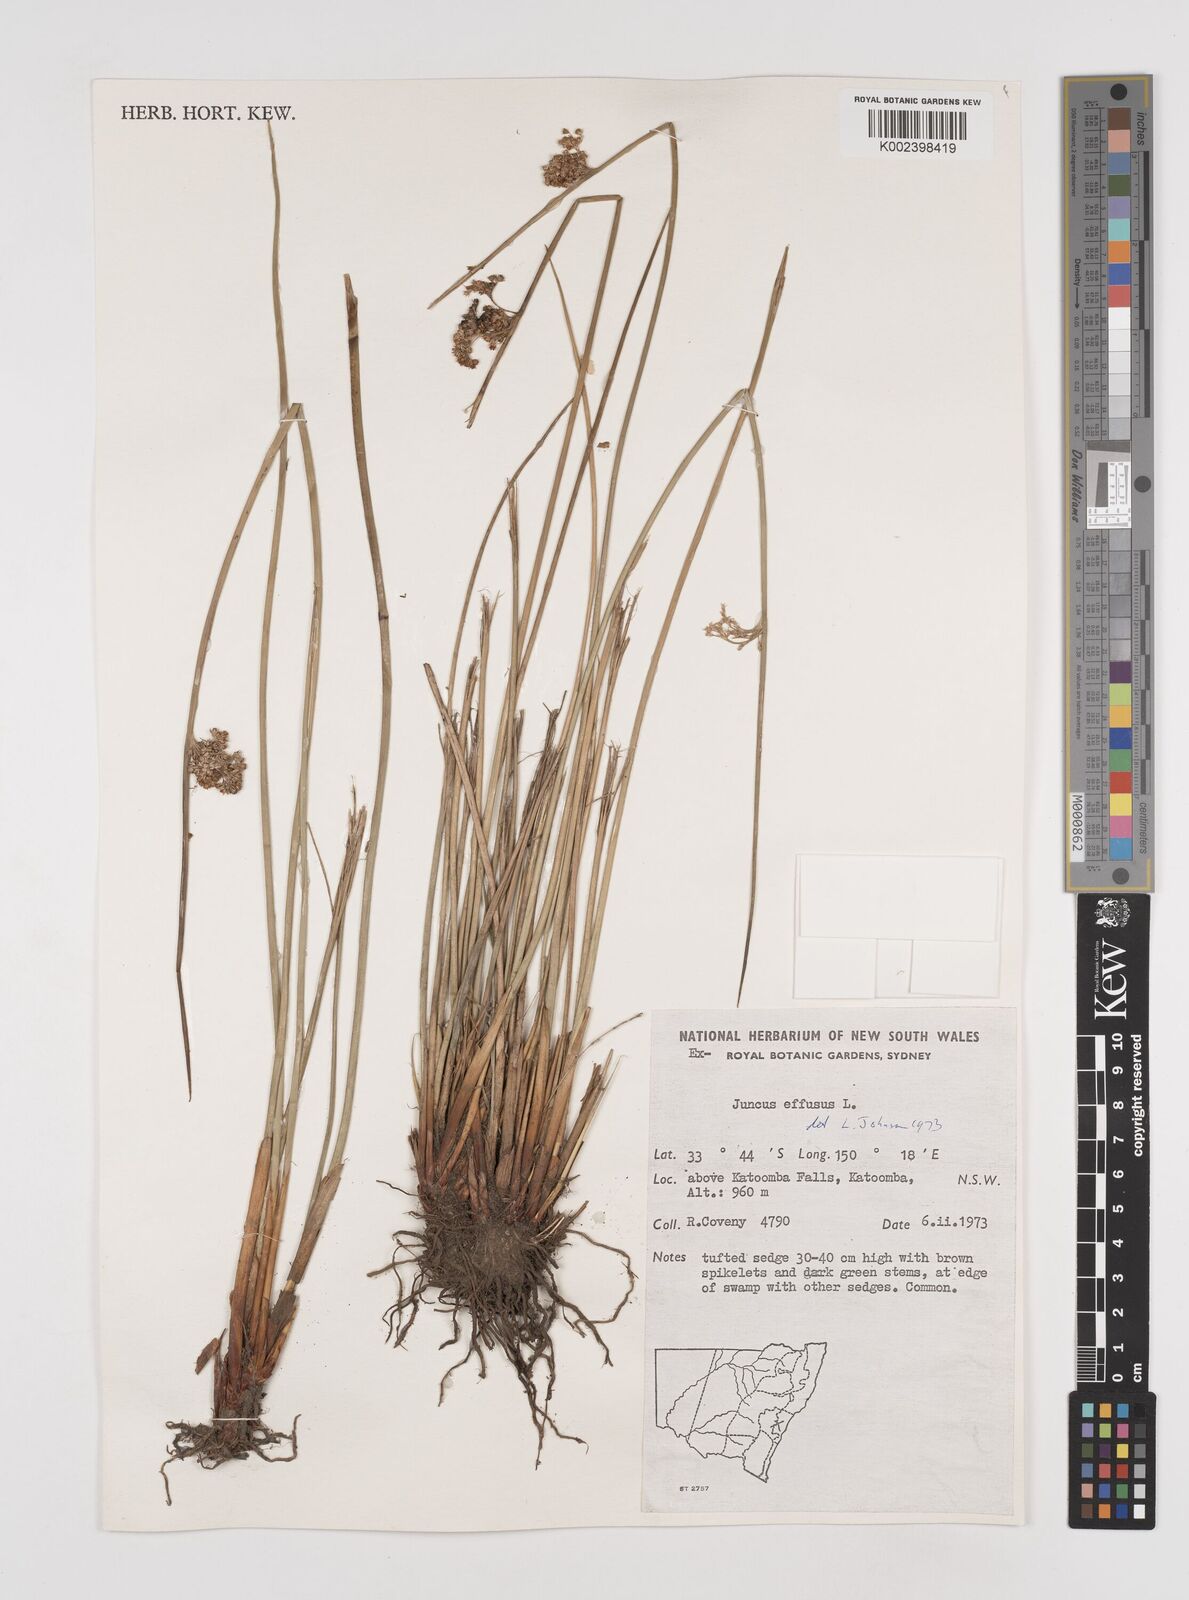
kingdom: Plantae
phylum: Tracheophyta
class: Liliopsida
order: Poales
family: Juncaceae
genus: Juncus
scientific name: Juncus effusus
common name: Soft rush
